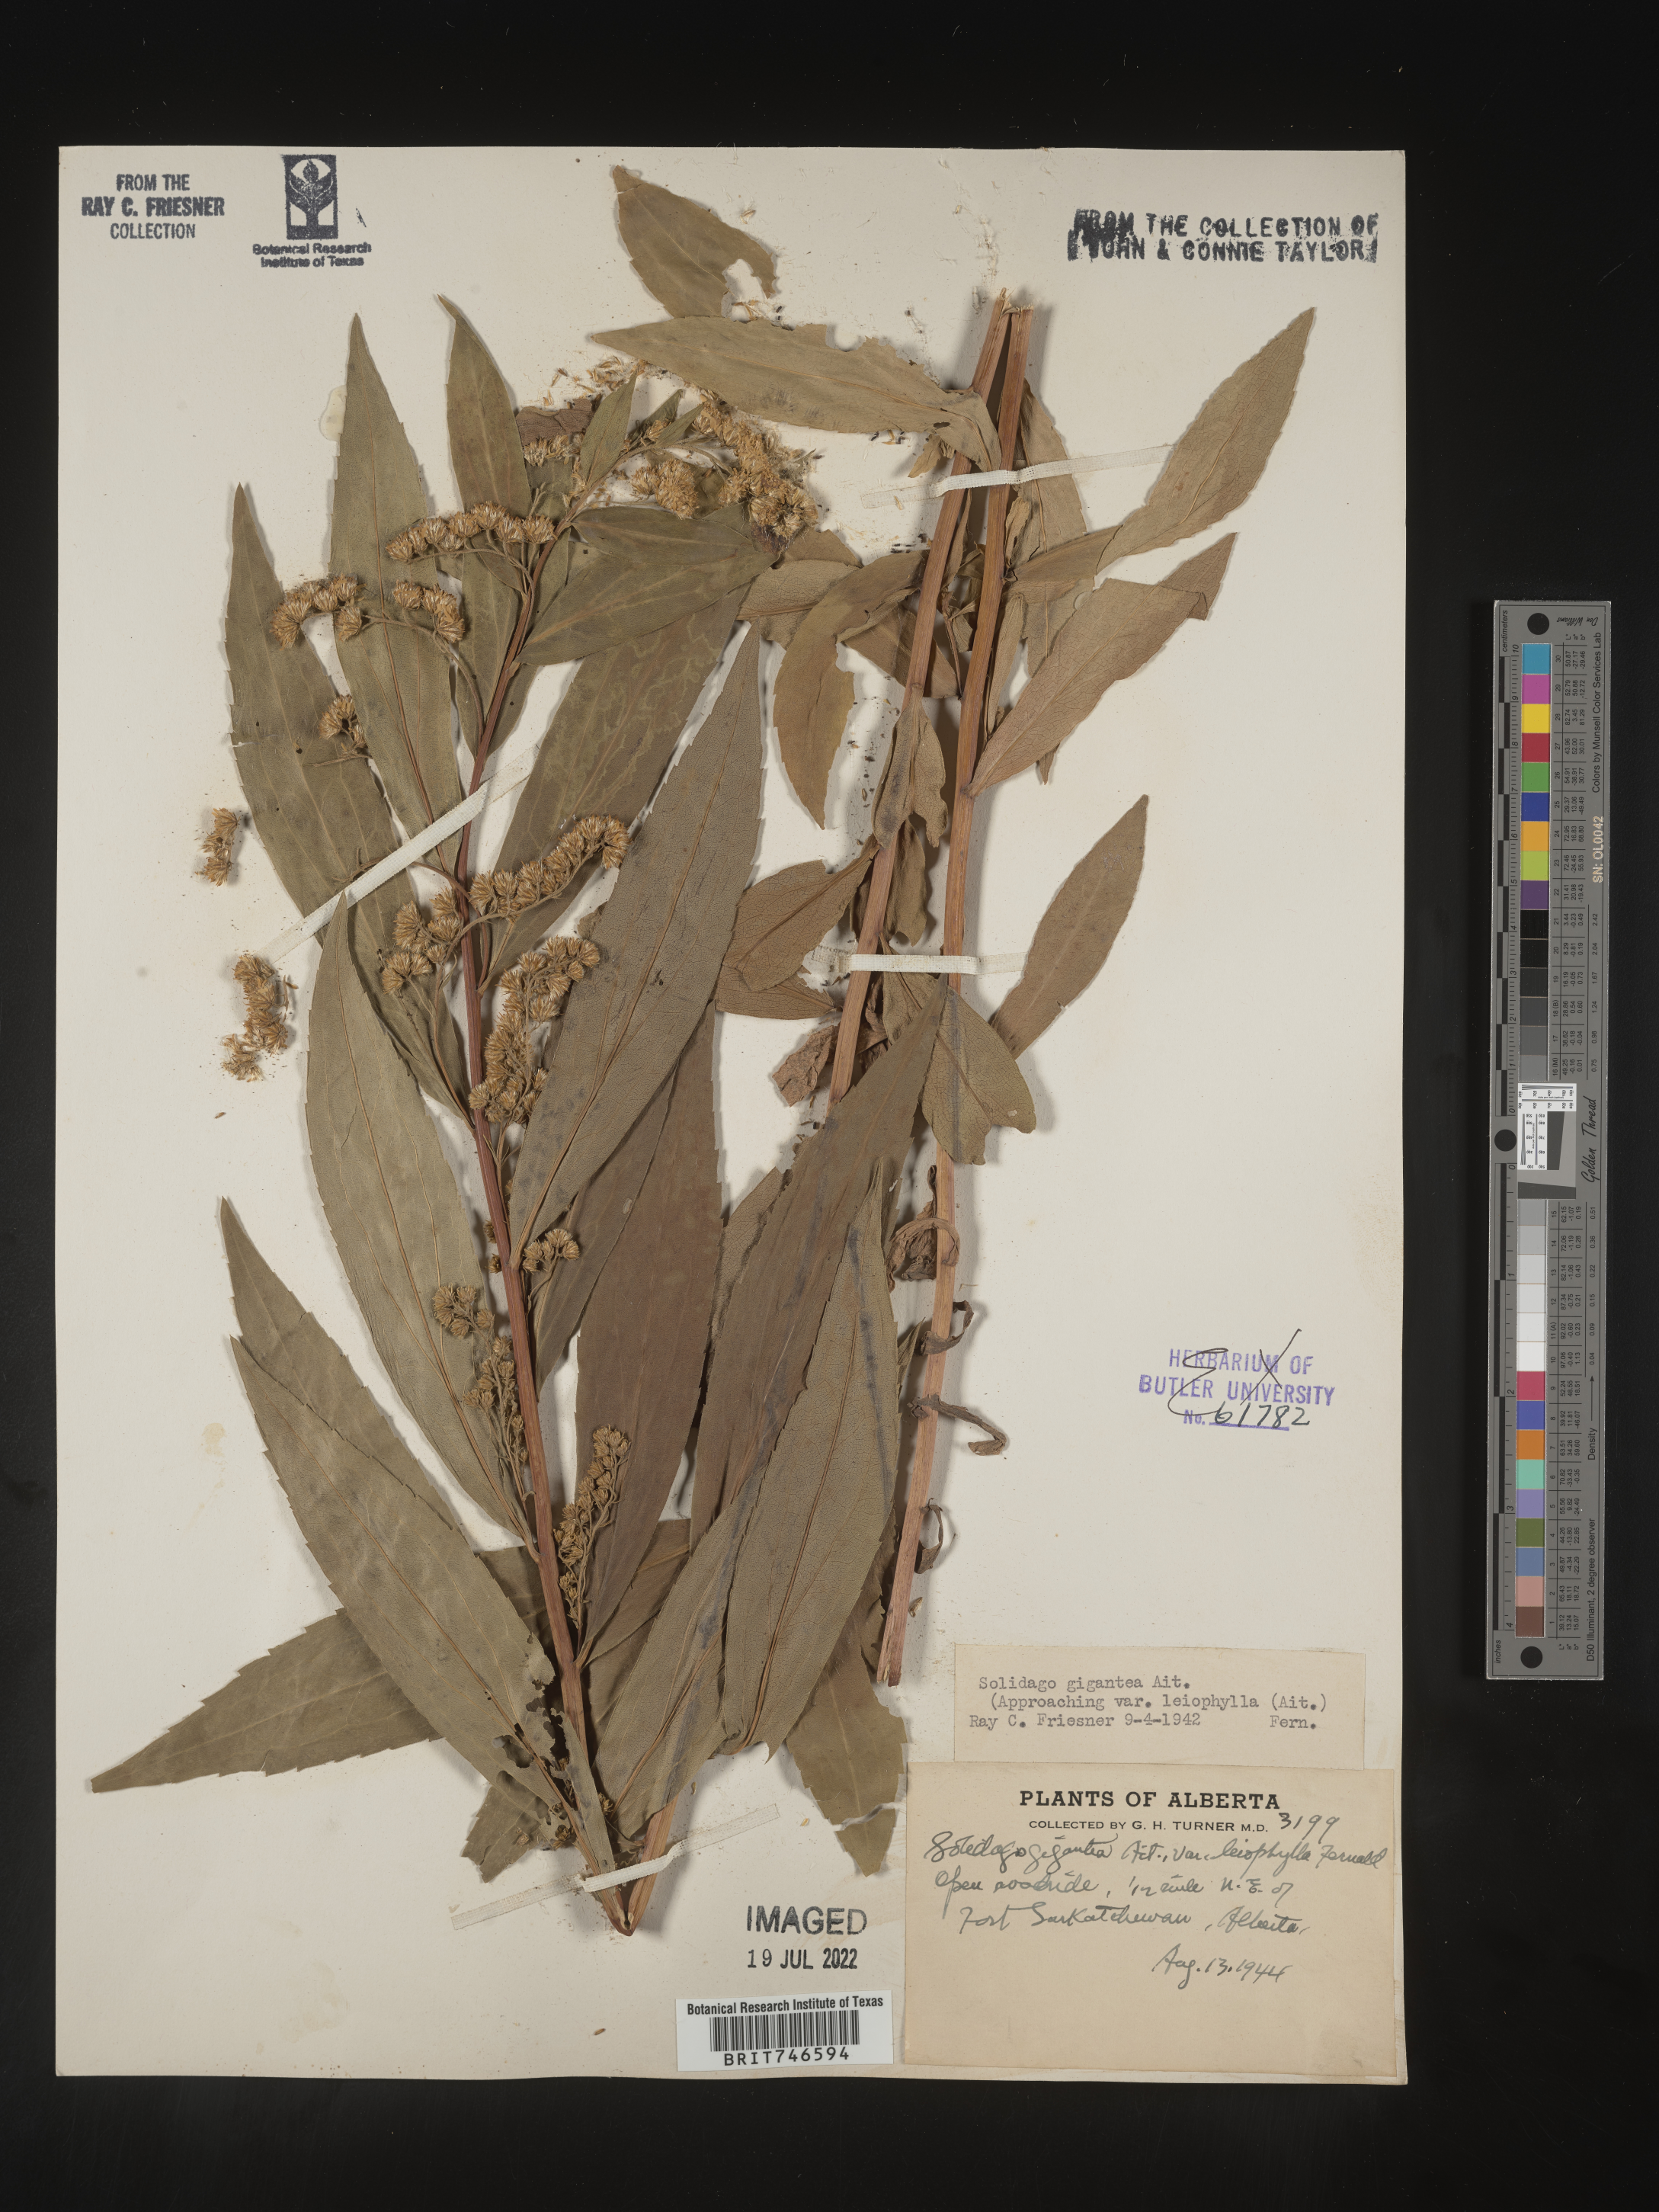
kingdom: Plantae
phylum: Tracheophyta
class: Magnoliopsida
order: Asterales
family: Asteraceae
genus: Solidago
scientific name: Solidago gigantea
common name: Giant goldenrod
